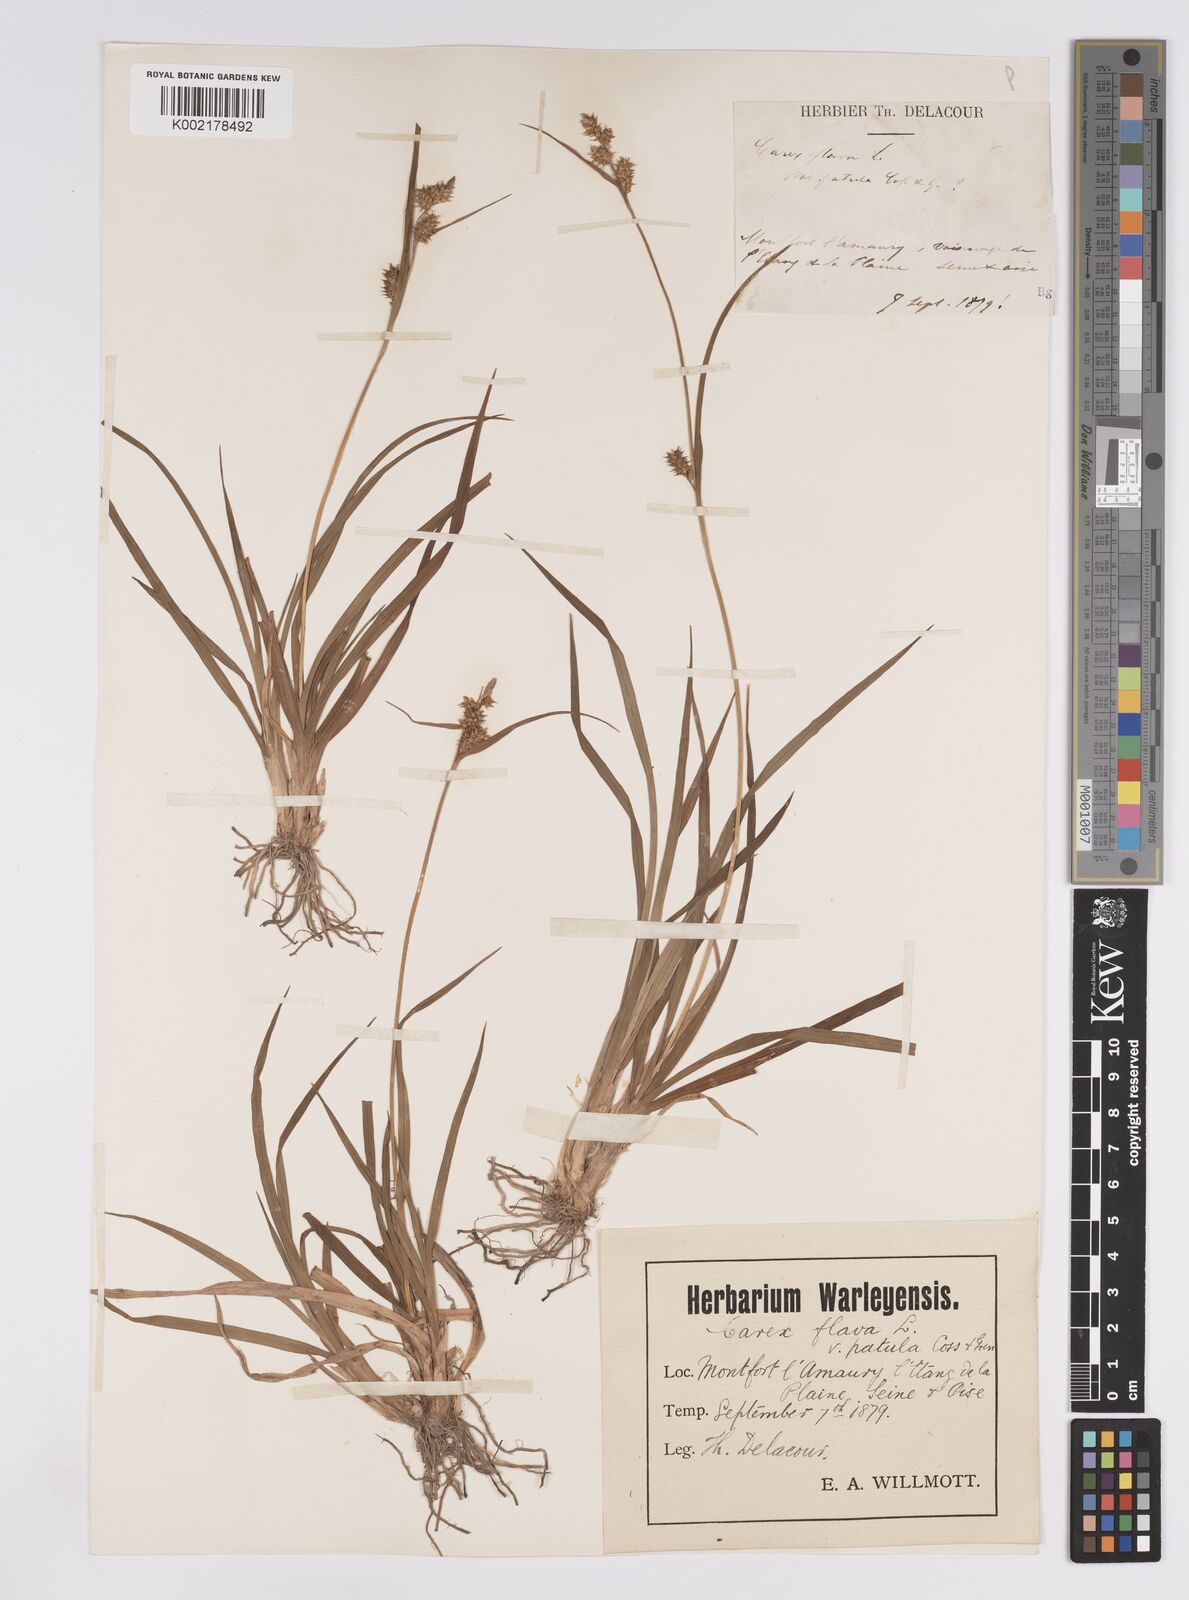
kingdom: Plantae
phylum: Tracheophyta
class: Liliopsida
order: Poales
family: Cyperaceae
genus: Carex
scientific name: Carex demissa
